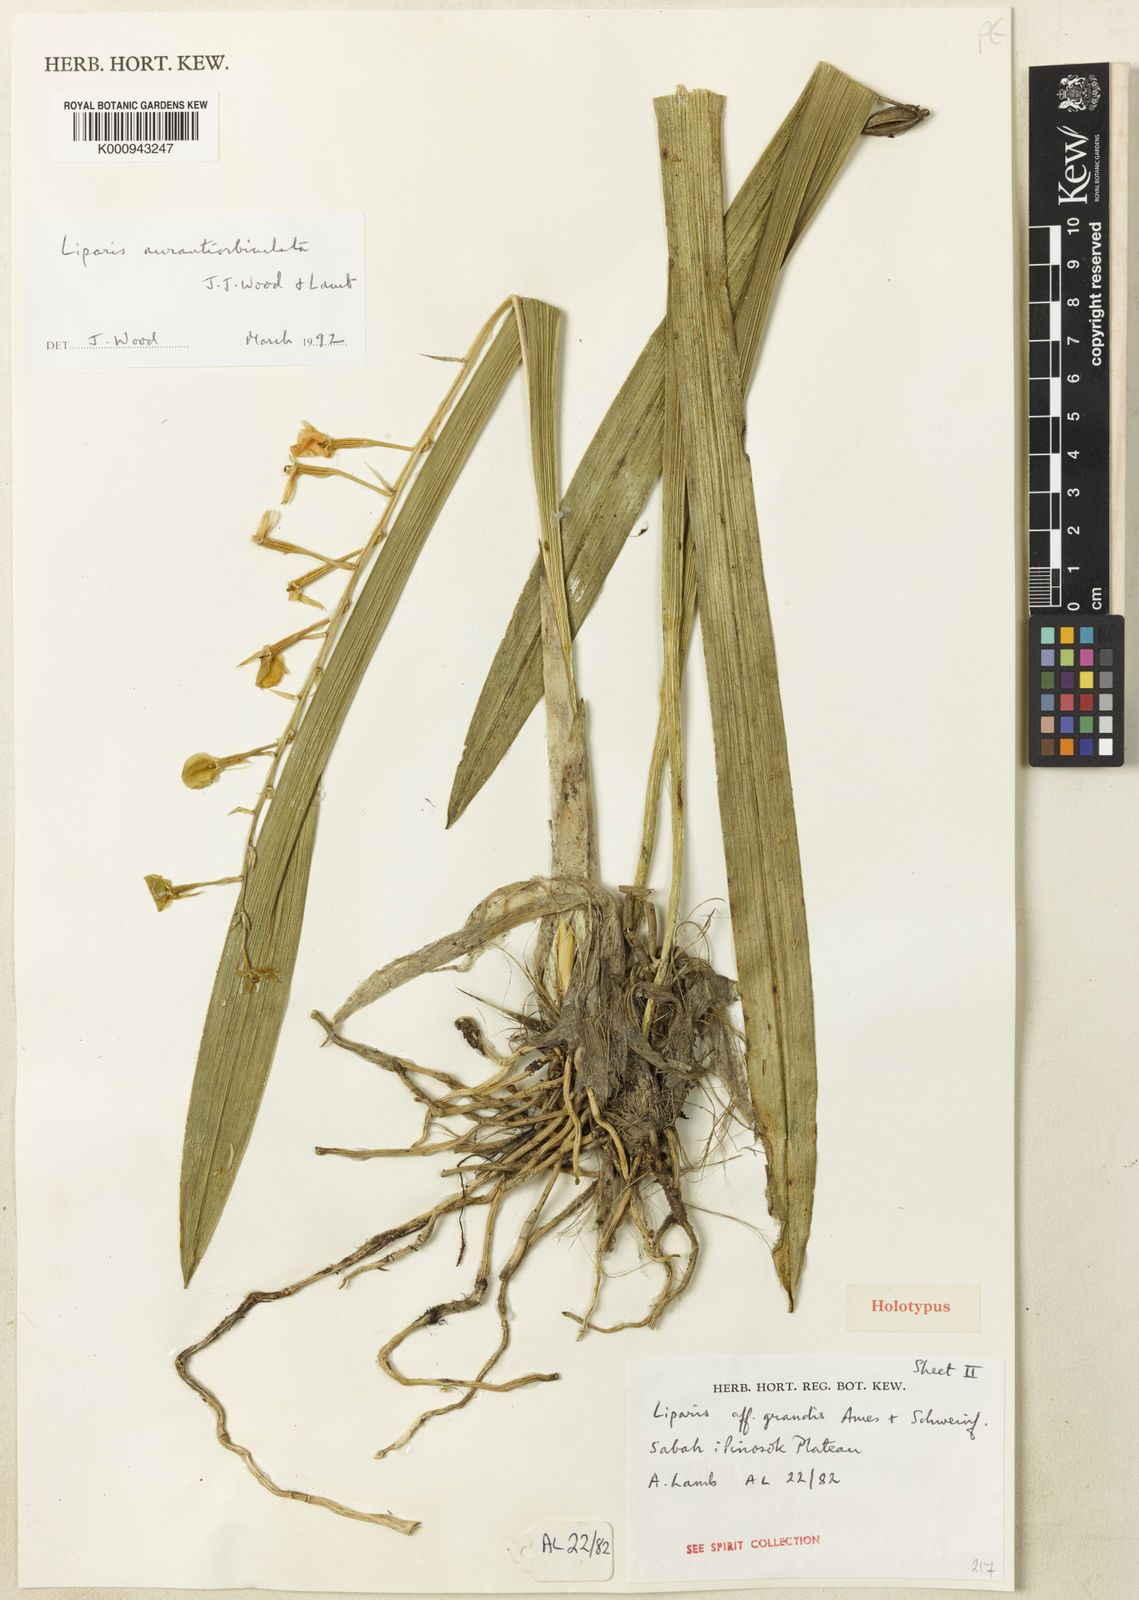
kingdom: Plantae
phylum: Tracheophyta
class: Liliopsida
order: Asparagales
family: Orchidaceae
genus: Liparis
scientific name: Liparis aurantiorbiculata
